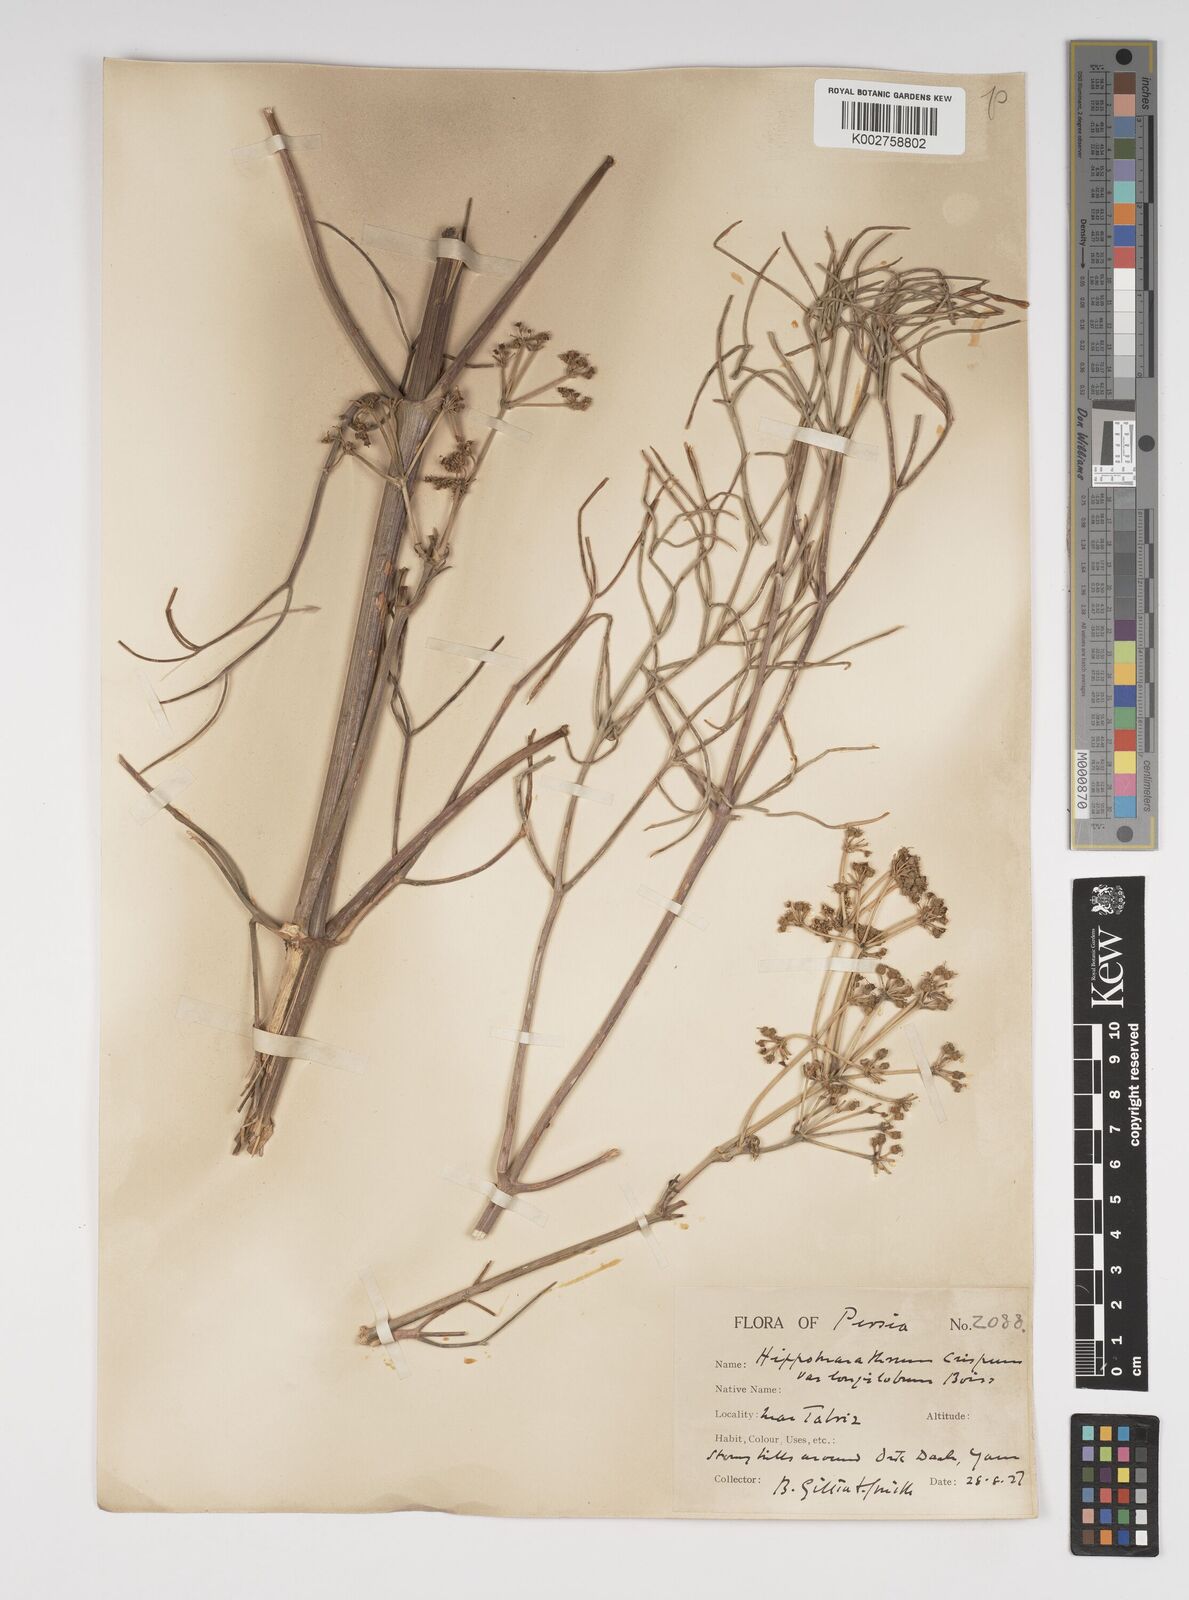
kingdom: Plantae
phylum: Tracheophyta
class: Magnoliopsida
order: Apiales
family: Apiaceae
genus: Bilacunaria
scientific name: Bilacunaria microcarpa
